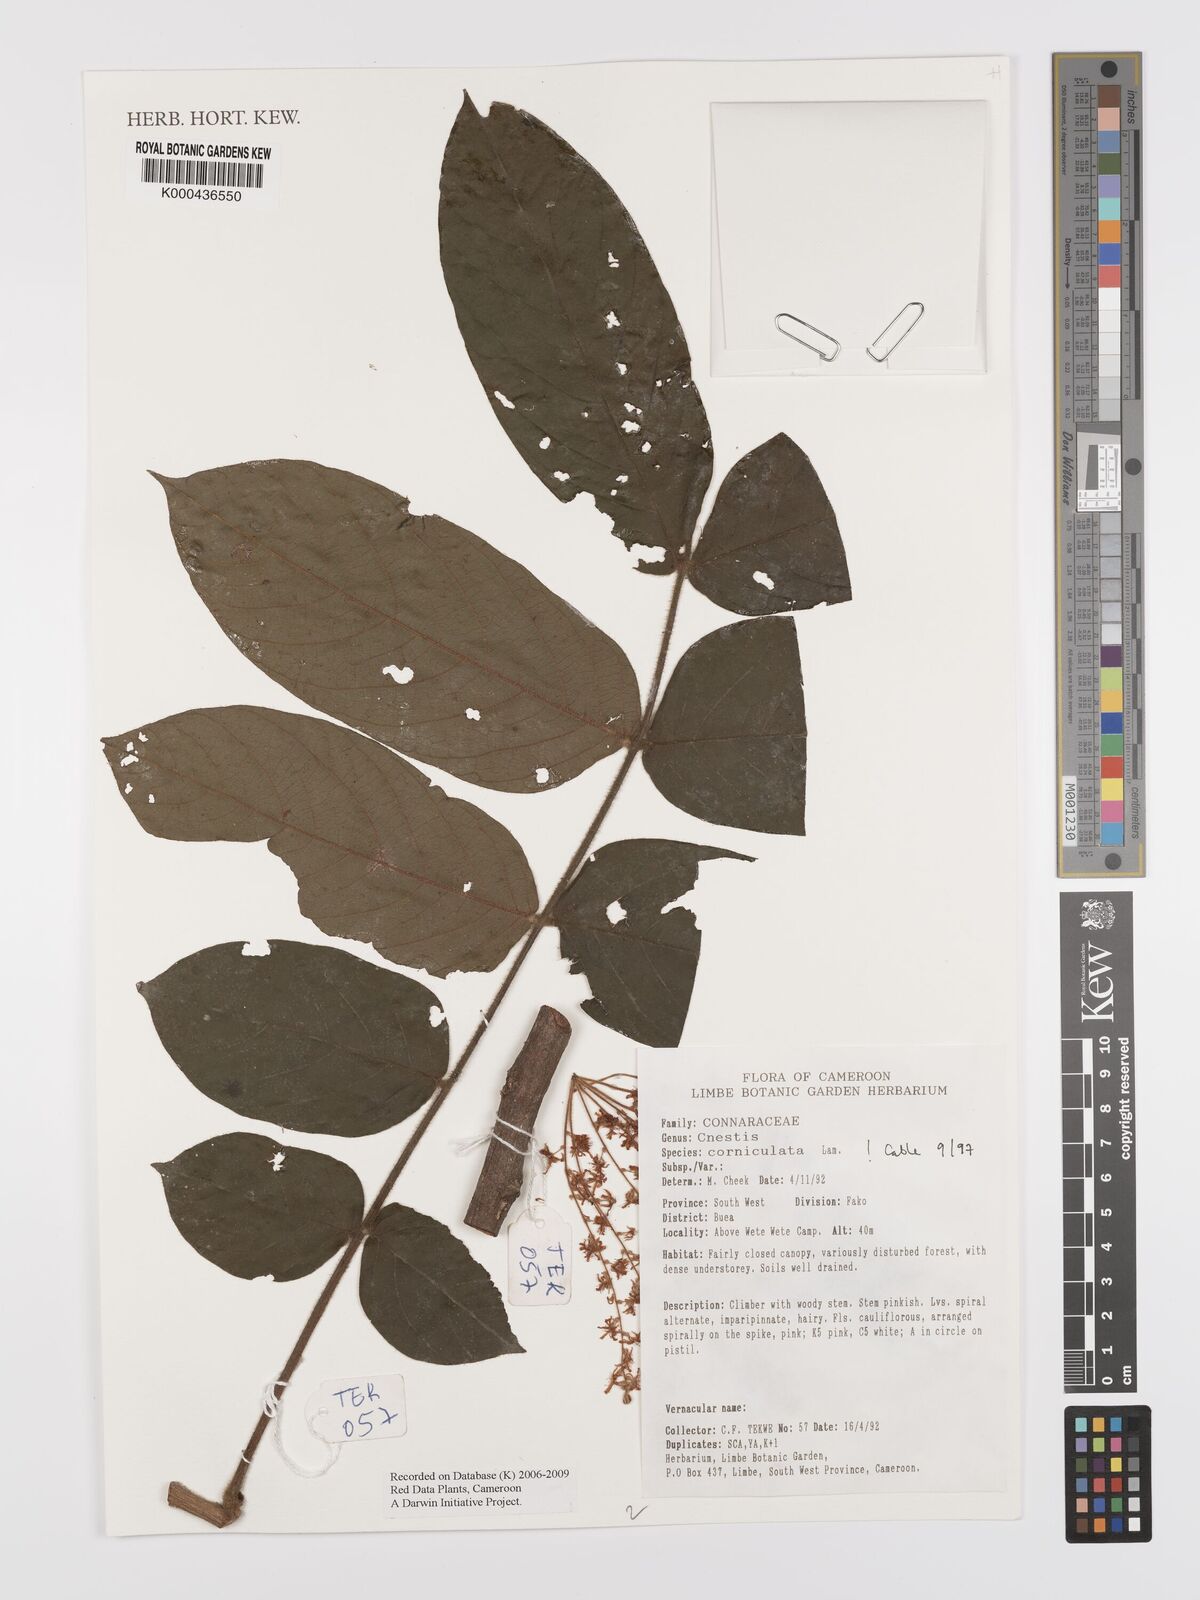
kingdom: Plantae
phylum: Tracheophyta
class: Magnoliopsida
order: Oxalidales
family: Connaraceae
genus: Cnestis
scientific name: Cnestis corniculata
